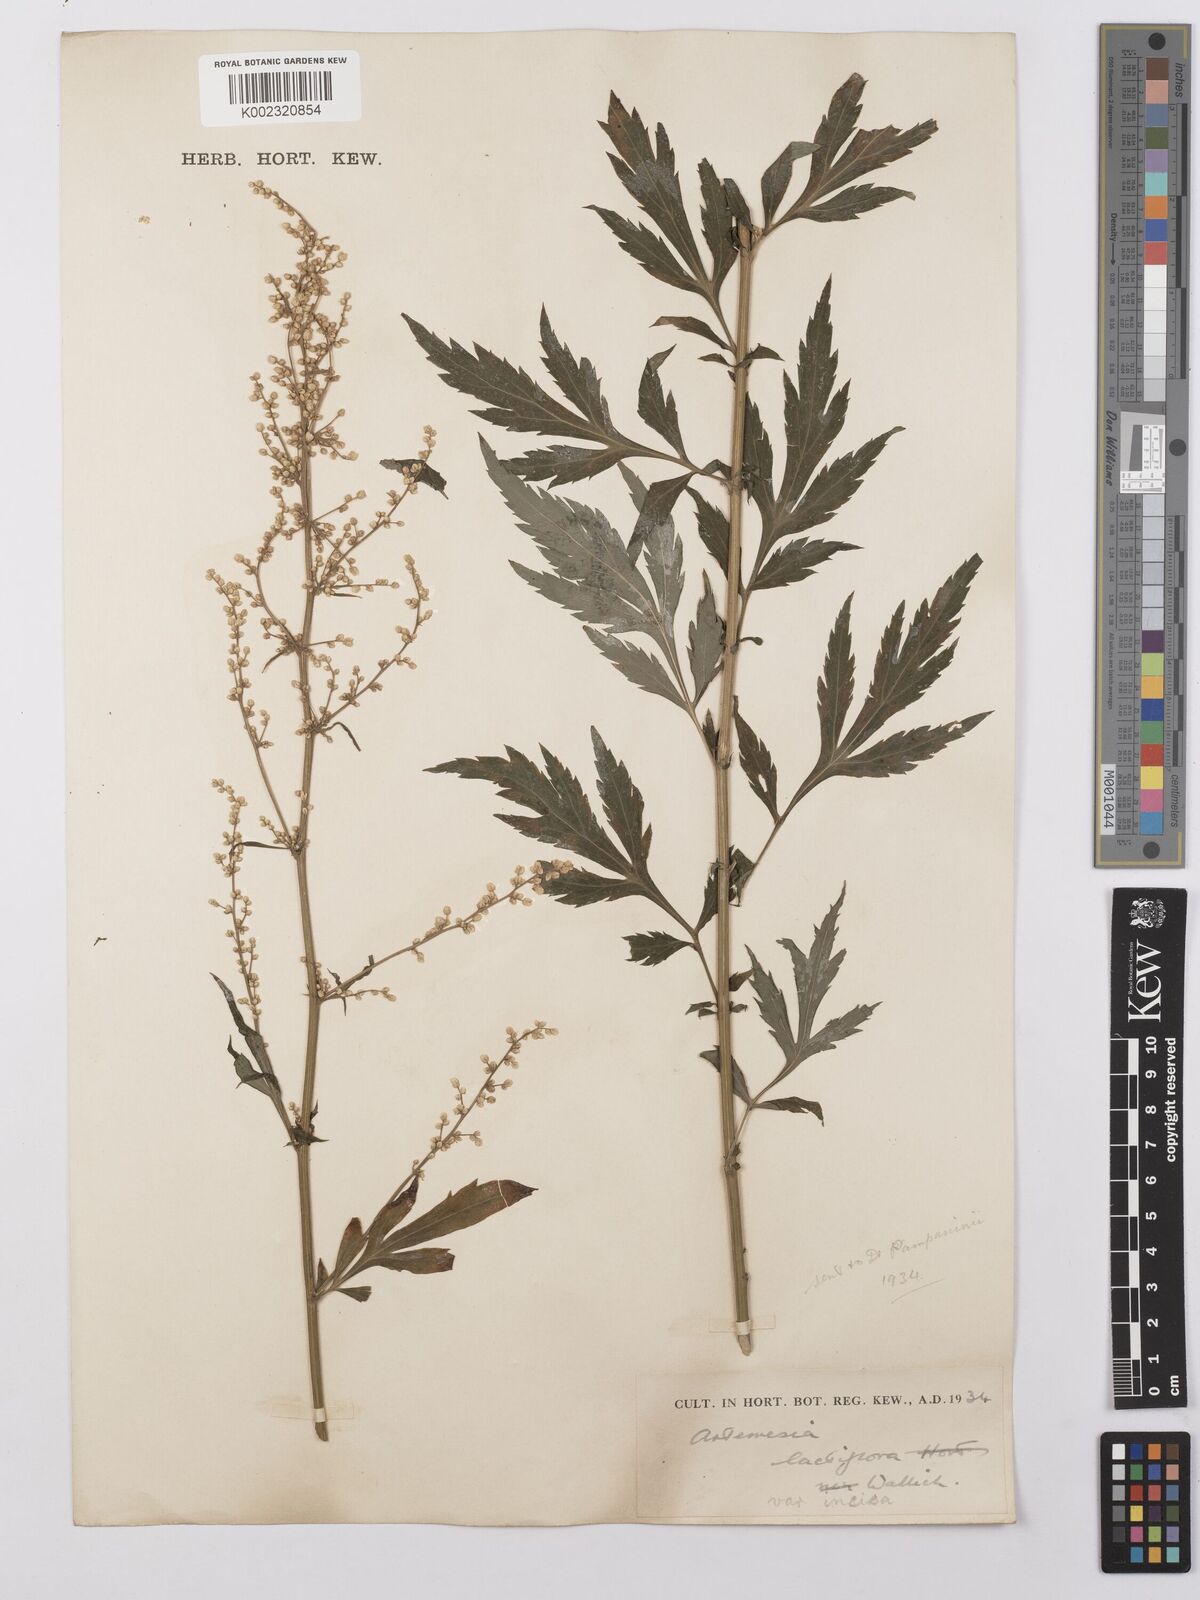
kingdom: Plantae
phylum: Tracheophyta
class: Magnoliopsida
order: Asterales
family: Asteraceae
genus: Artemisia
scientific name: Artemisia lactiflora
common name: White mugwort
